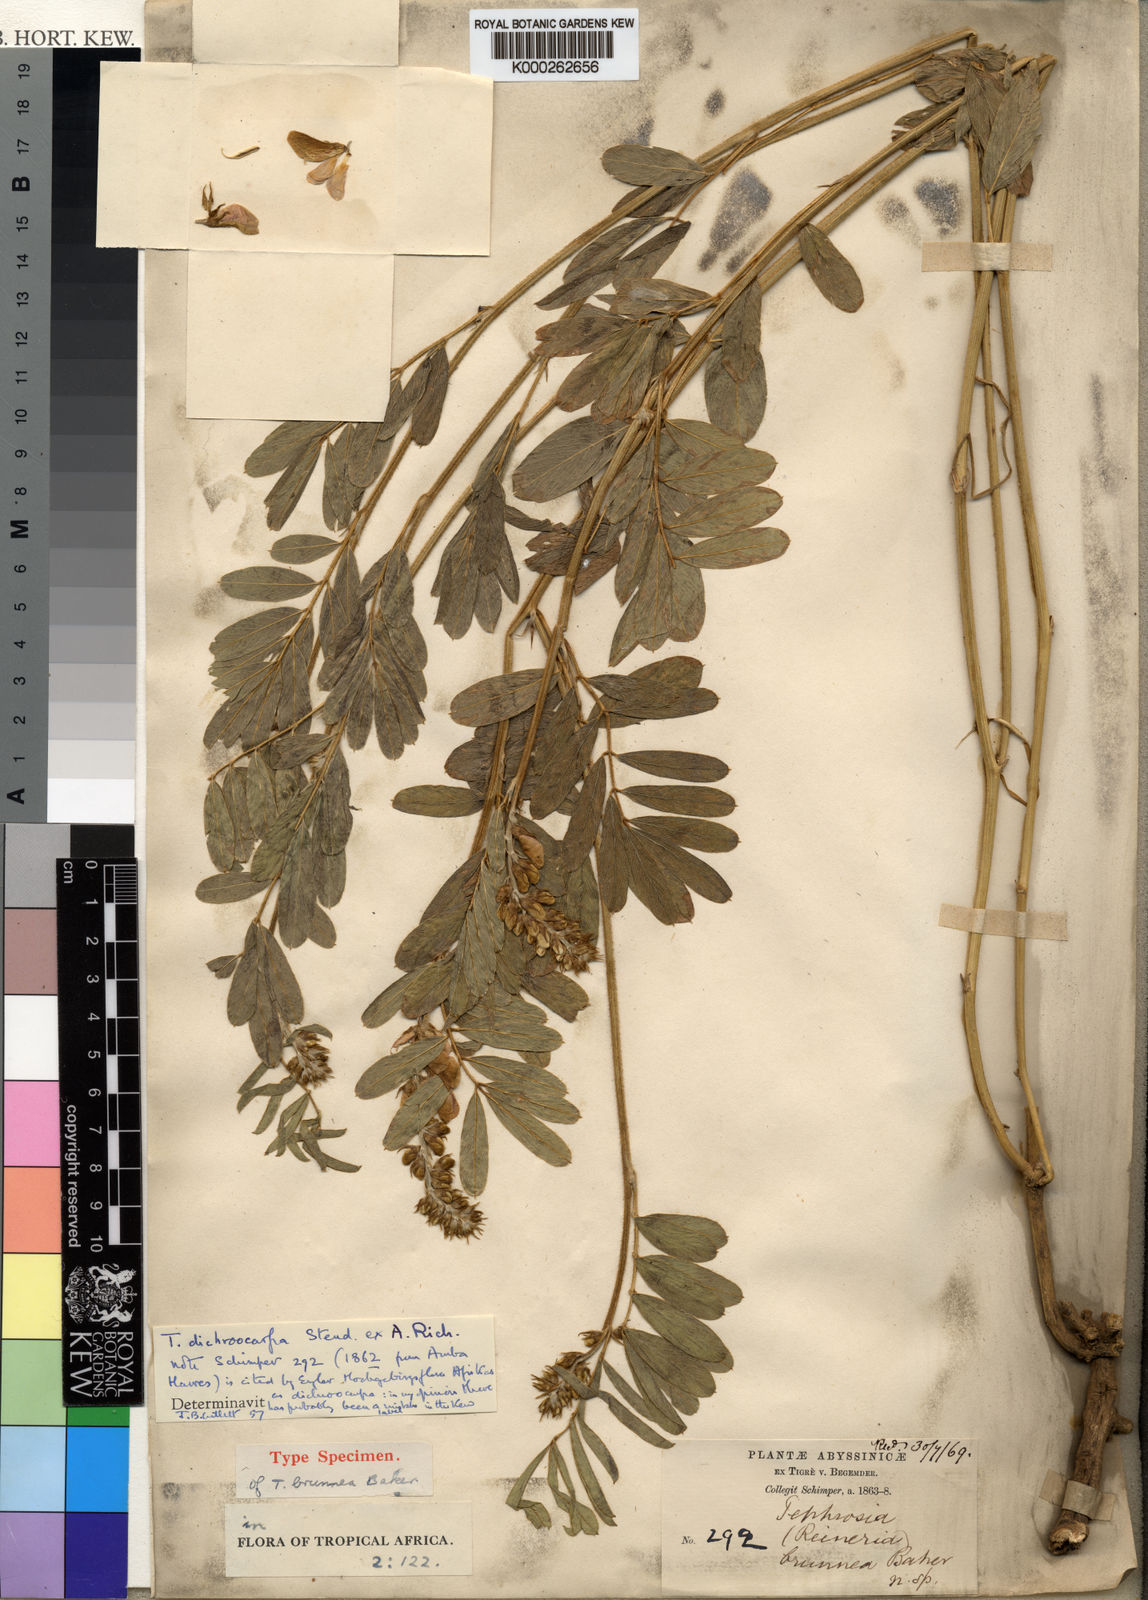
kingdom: Plantae
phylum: Tracheophyta
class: Magnoliopsida
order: Fabales
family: Fabaceae
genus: Tephrosia
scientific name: Tephrosia dichroocarpa
